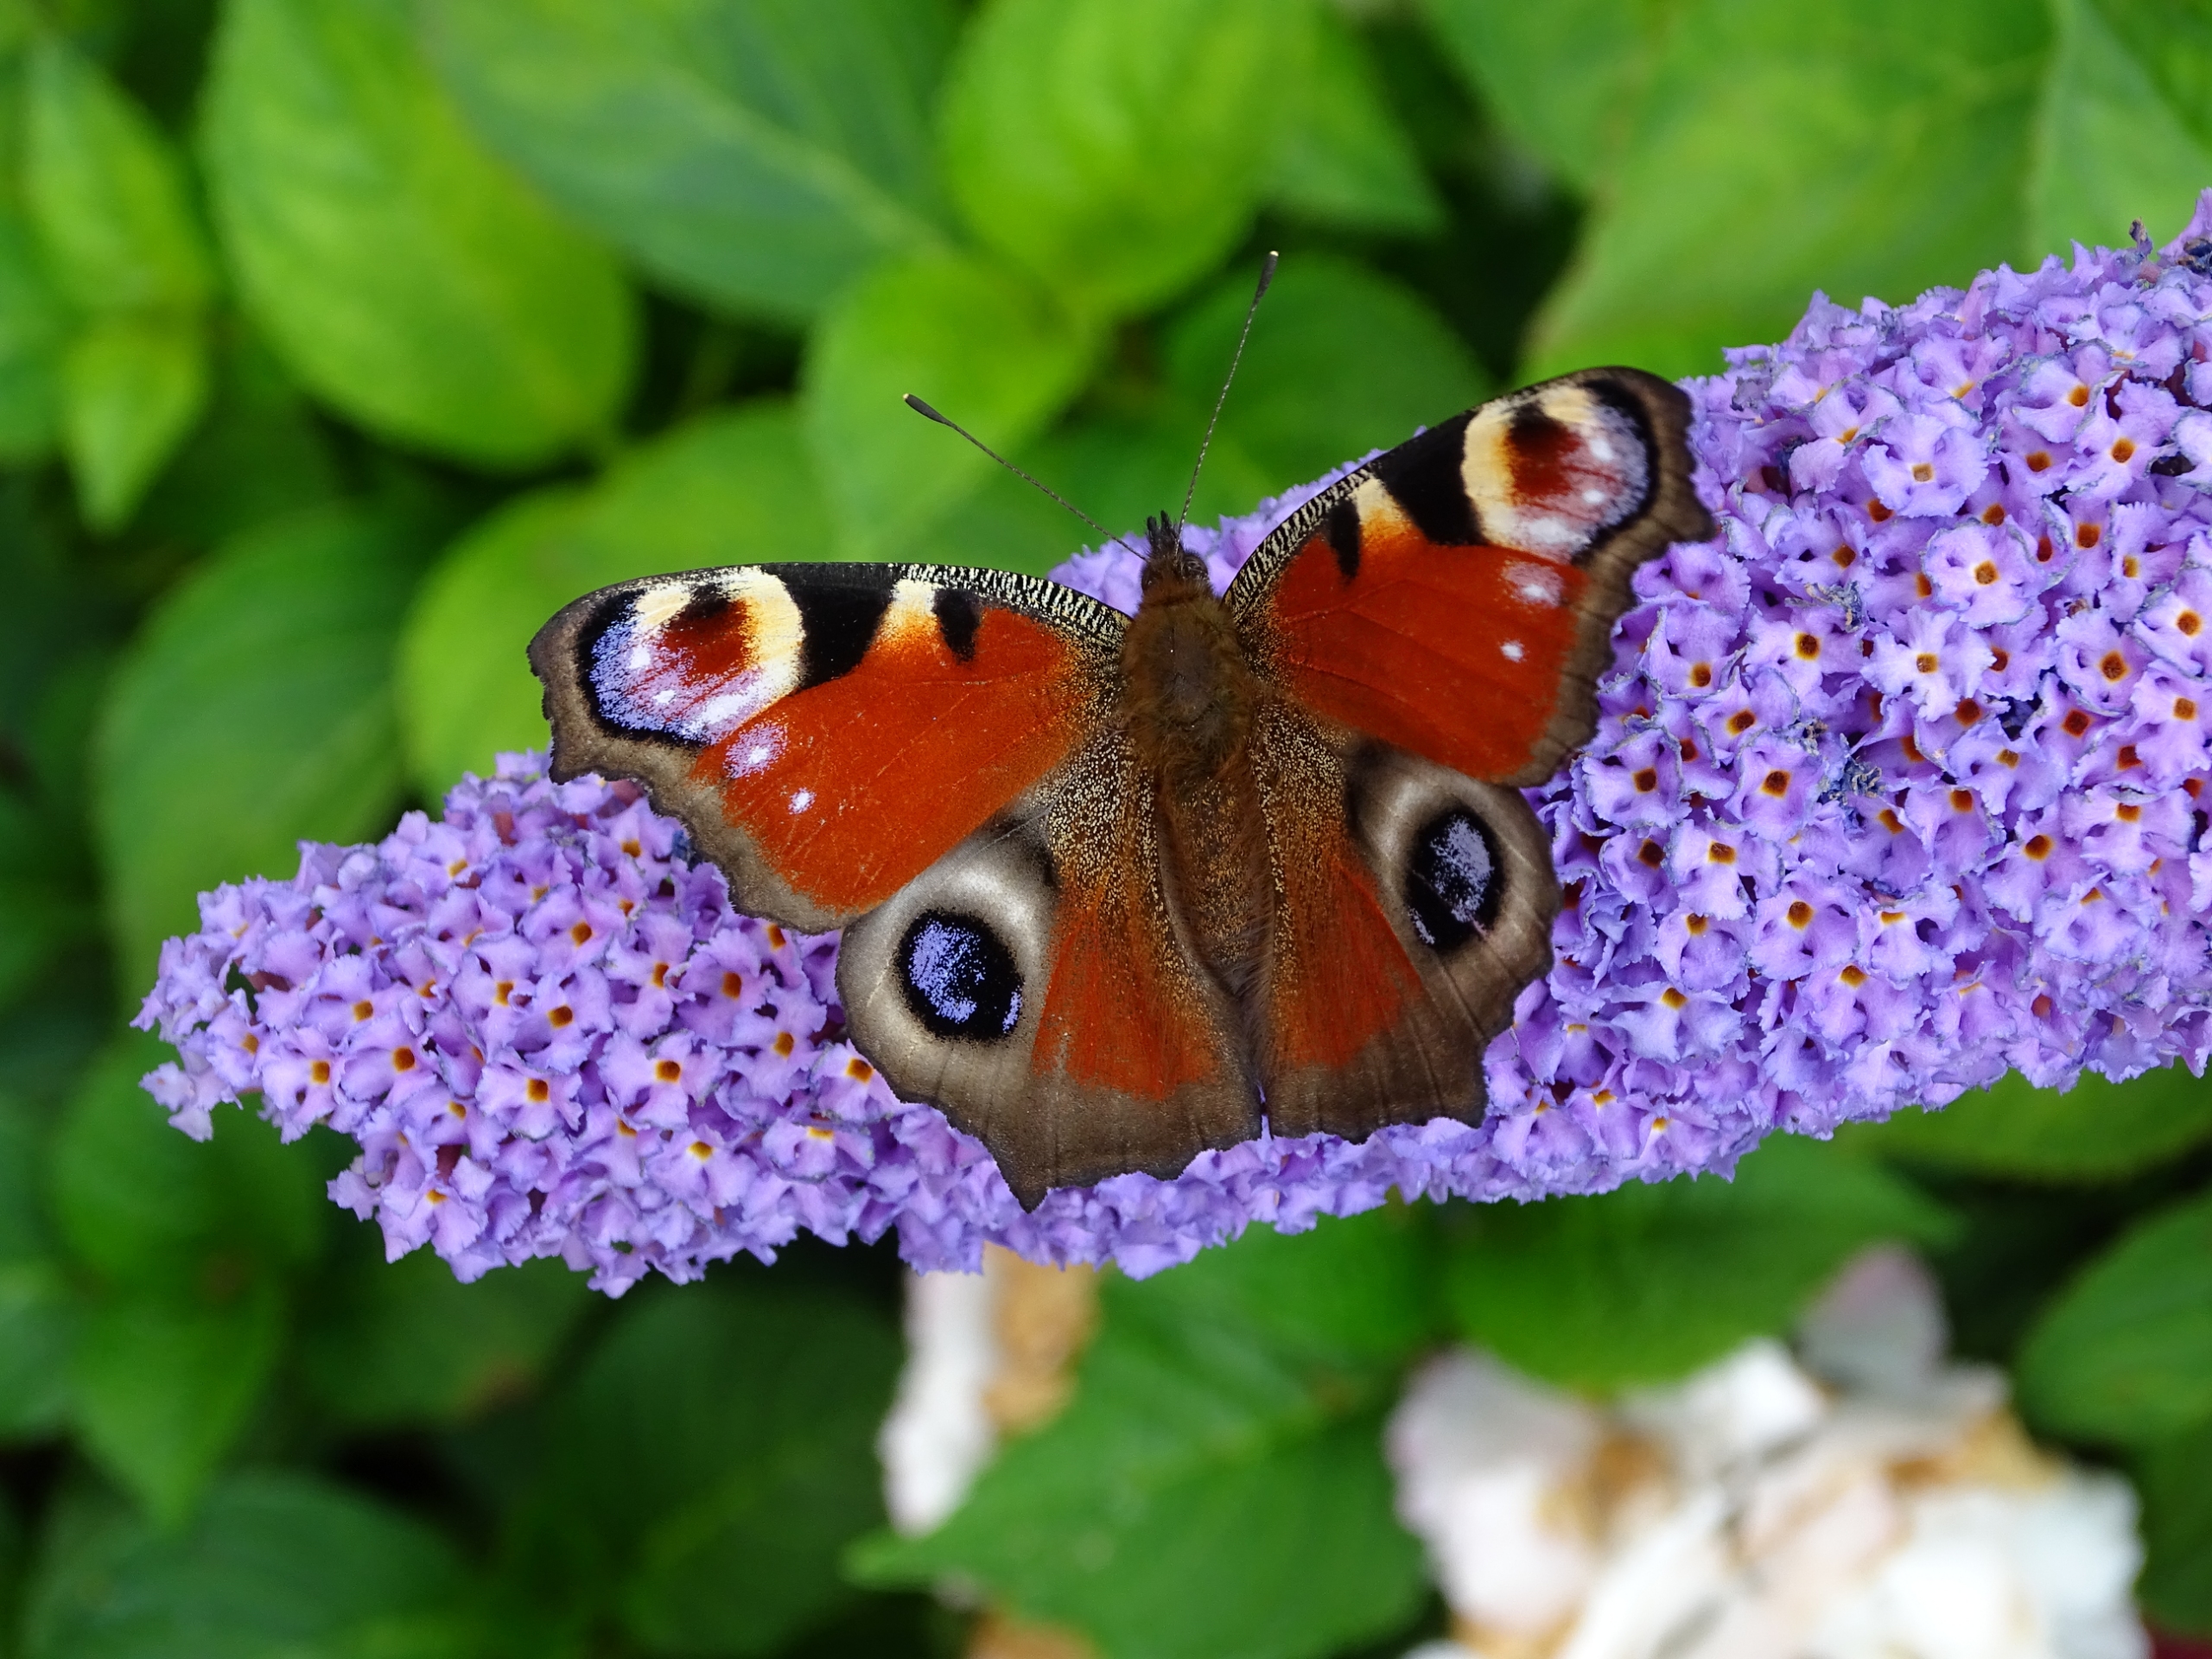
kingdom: Animalia
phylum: Arthropoda
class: Insecta
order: Lepidoptera
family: Nymphalidae
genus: Aglais
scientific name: Aglais io
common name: Dagpåfugleøje
